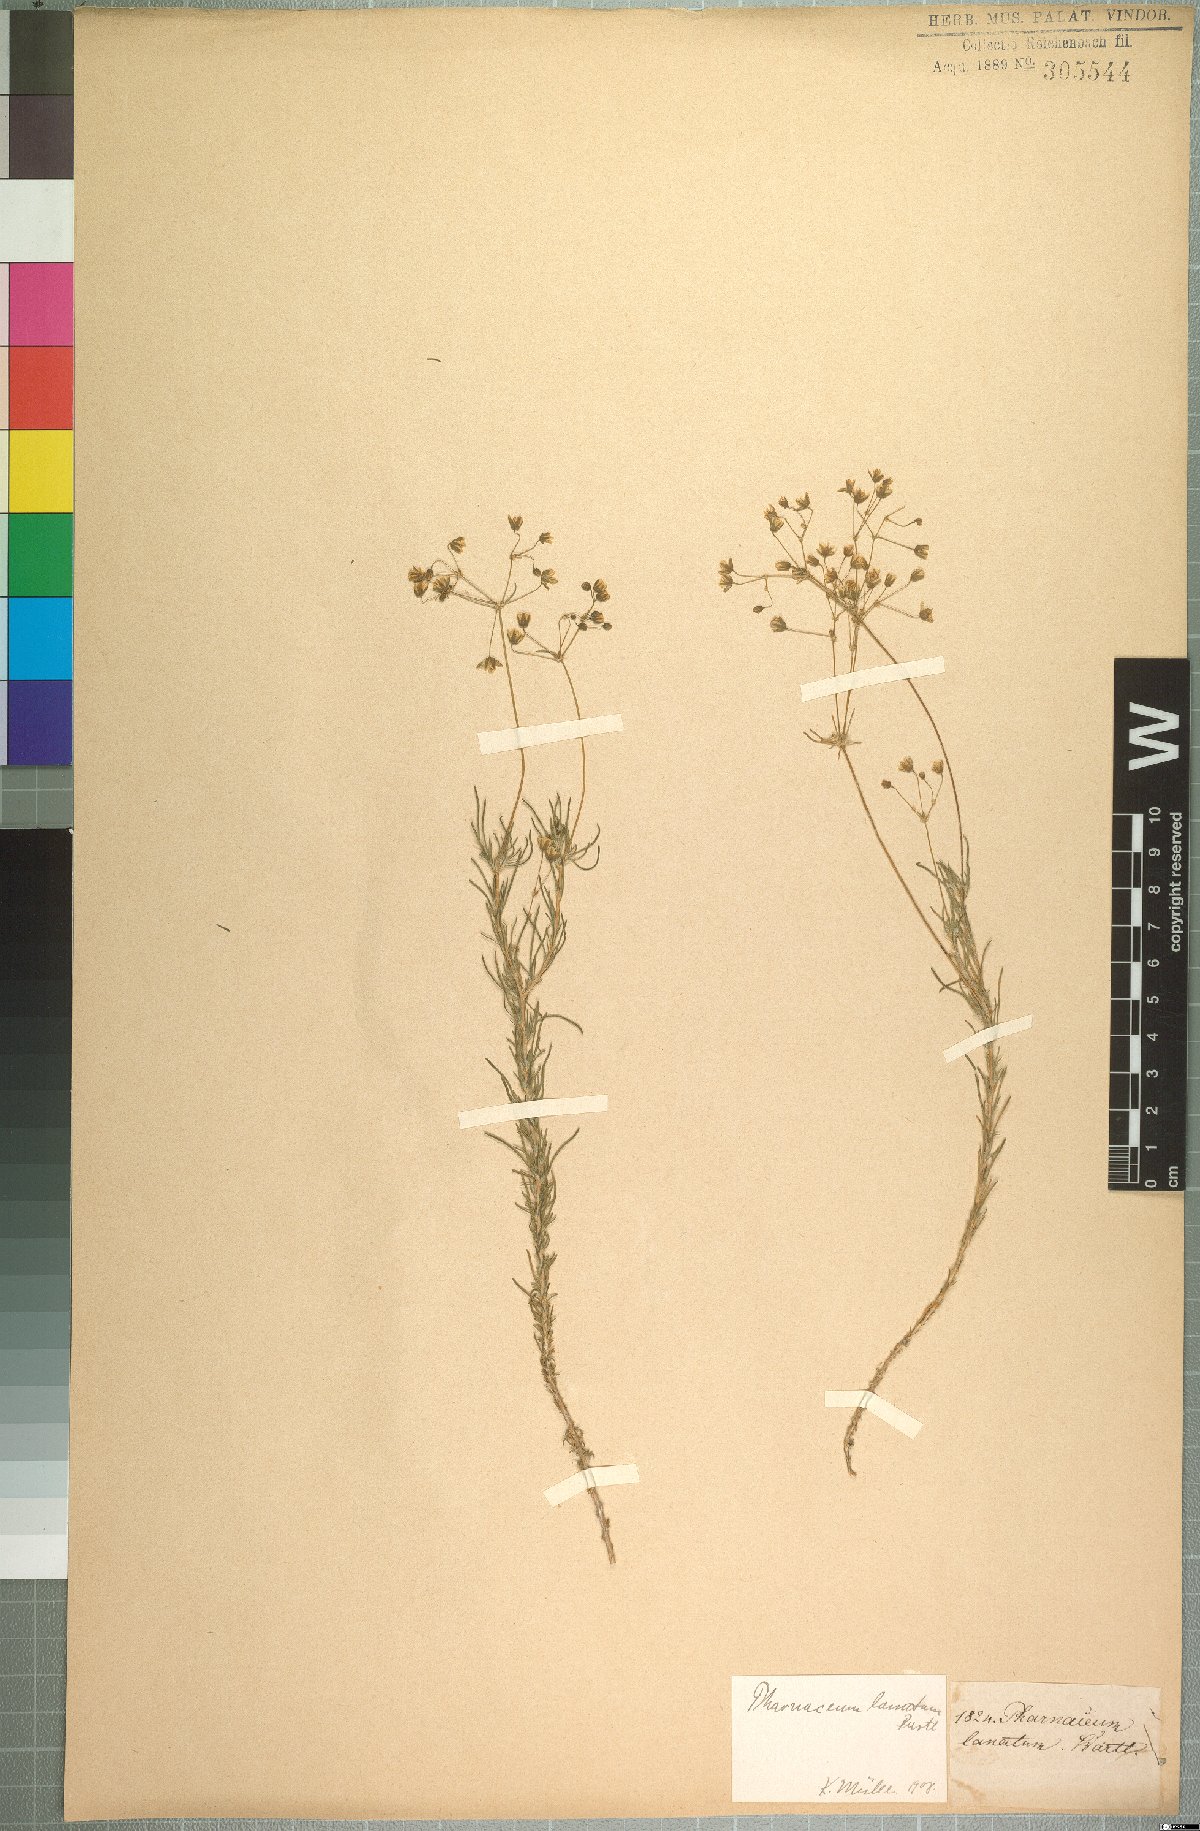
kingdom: Plantae
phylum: Tracheophyta
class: Magnoliopsida
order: Caryophyllales
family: Molluginaceae
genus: Pharnaceum
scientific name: Pharnaceum lanatum
